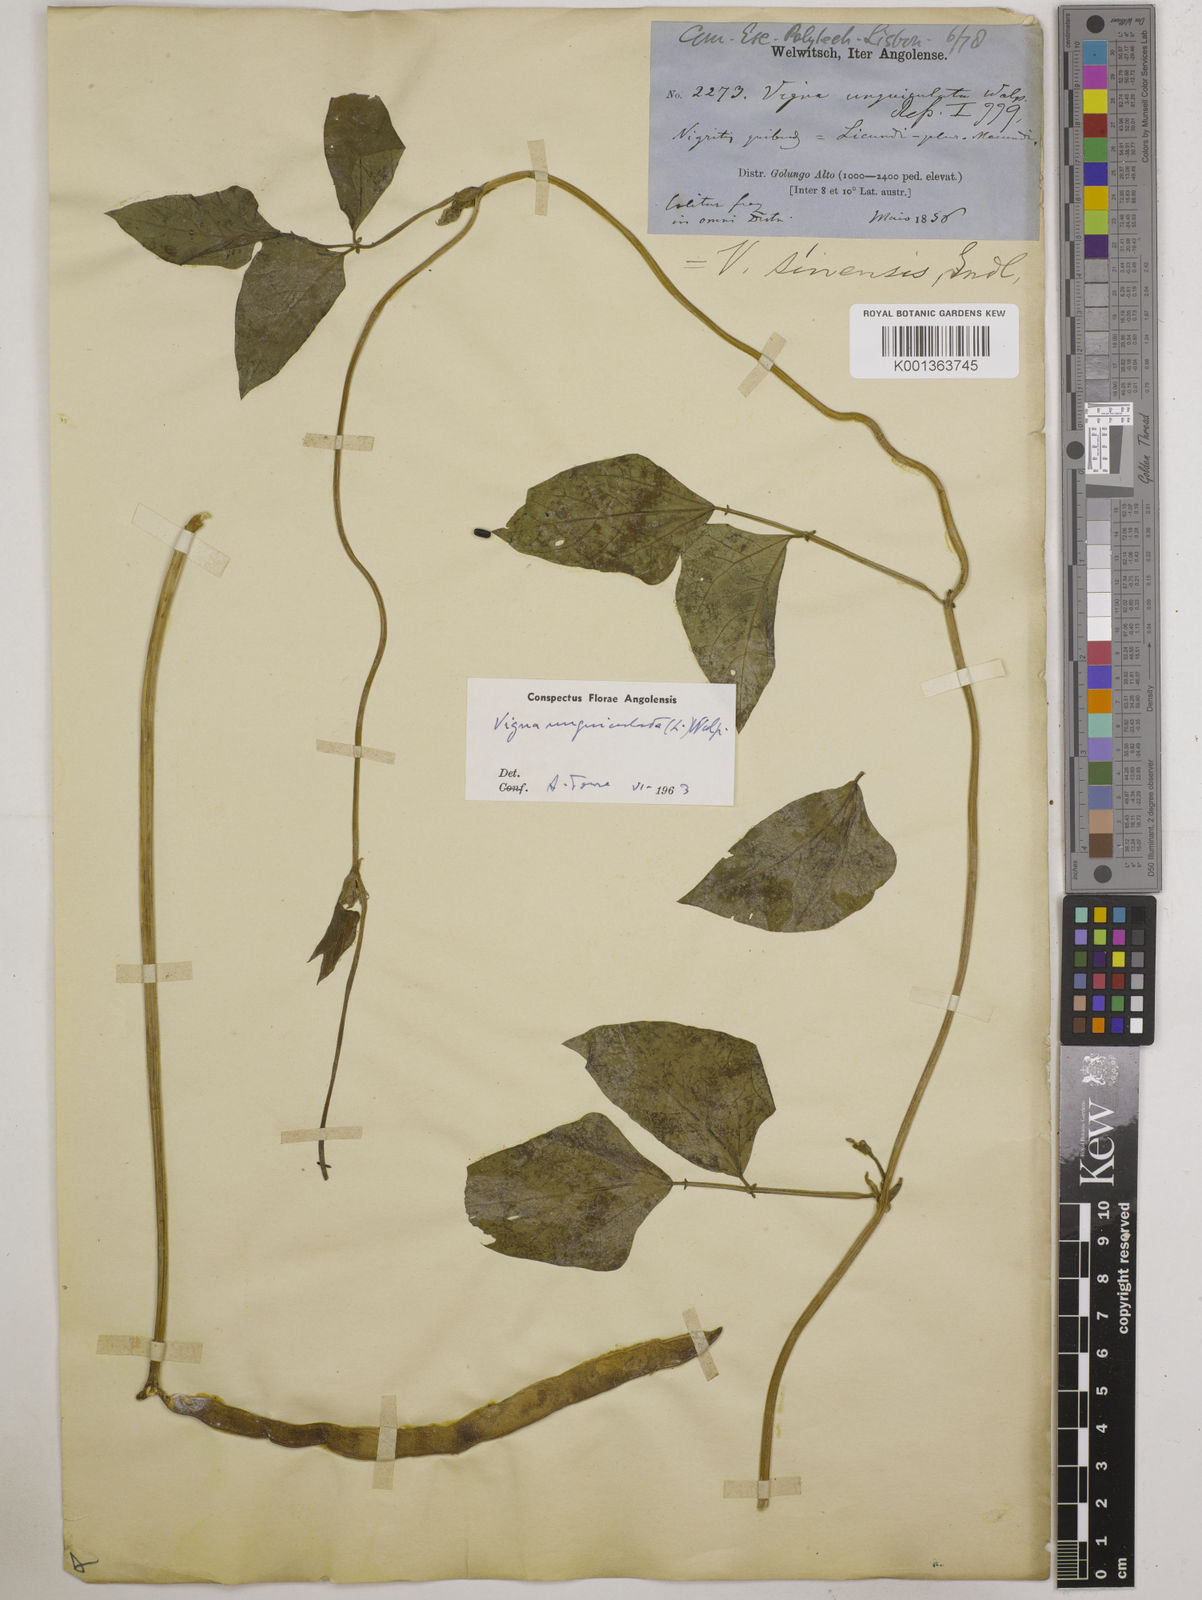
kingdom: Plantae
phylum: Tracheophyta
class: Magnoliopsida
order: Fabales
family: Fabaceae
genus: Vigna
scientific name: Vigna unguiculata
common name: Cowpea
